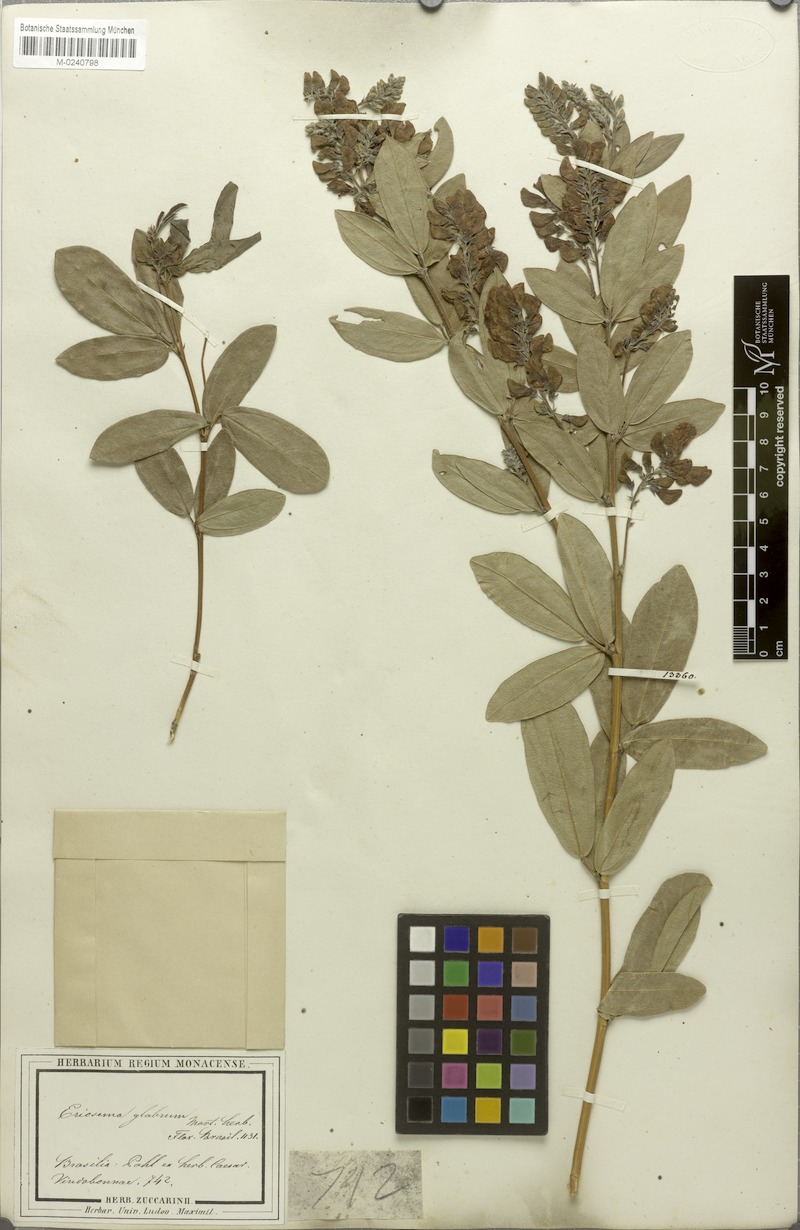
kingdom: Plantae
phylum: Tracheophyta
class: Magnoliopsida
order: Fabales
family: Fabaceae
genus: Eriosema
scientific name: Eriosema glabrum
